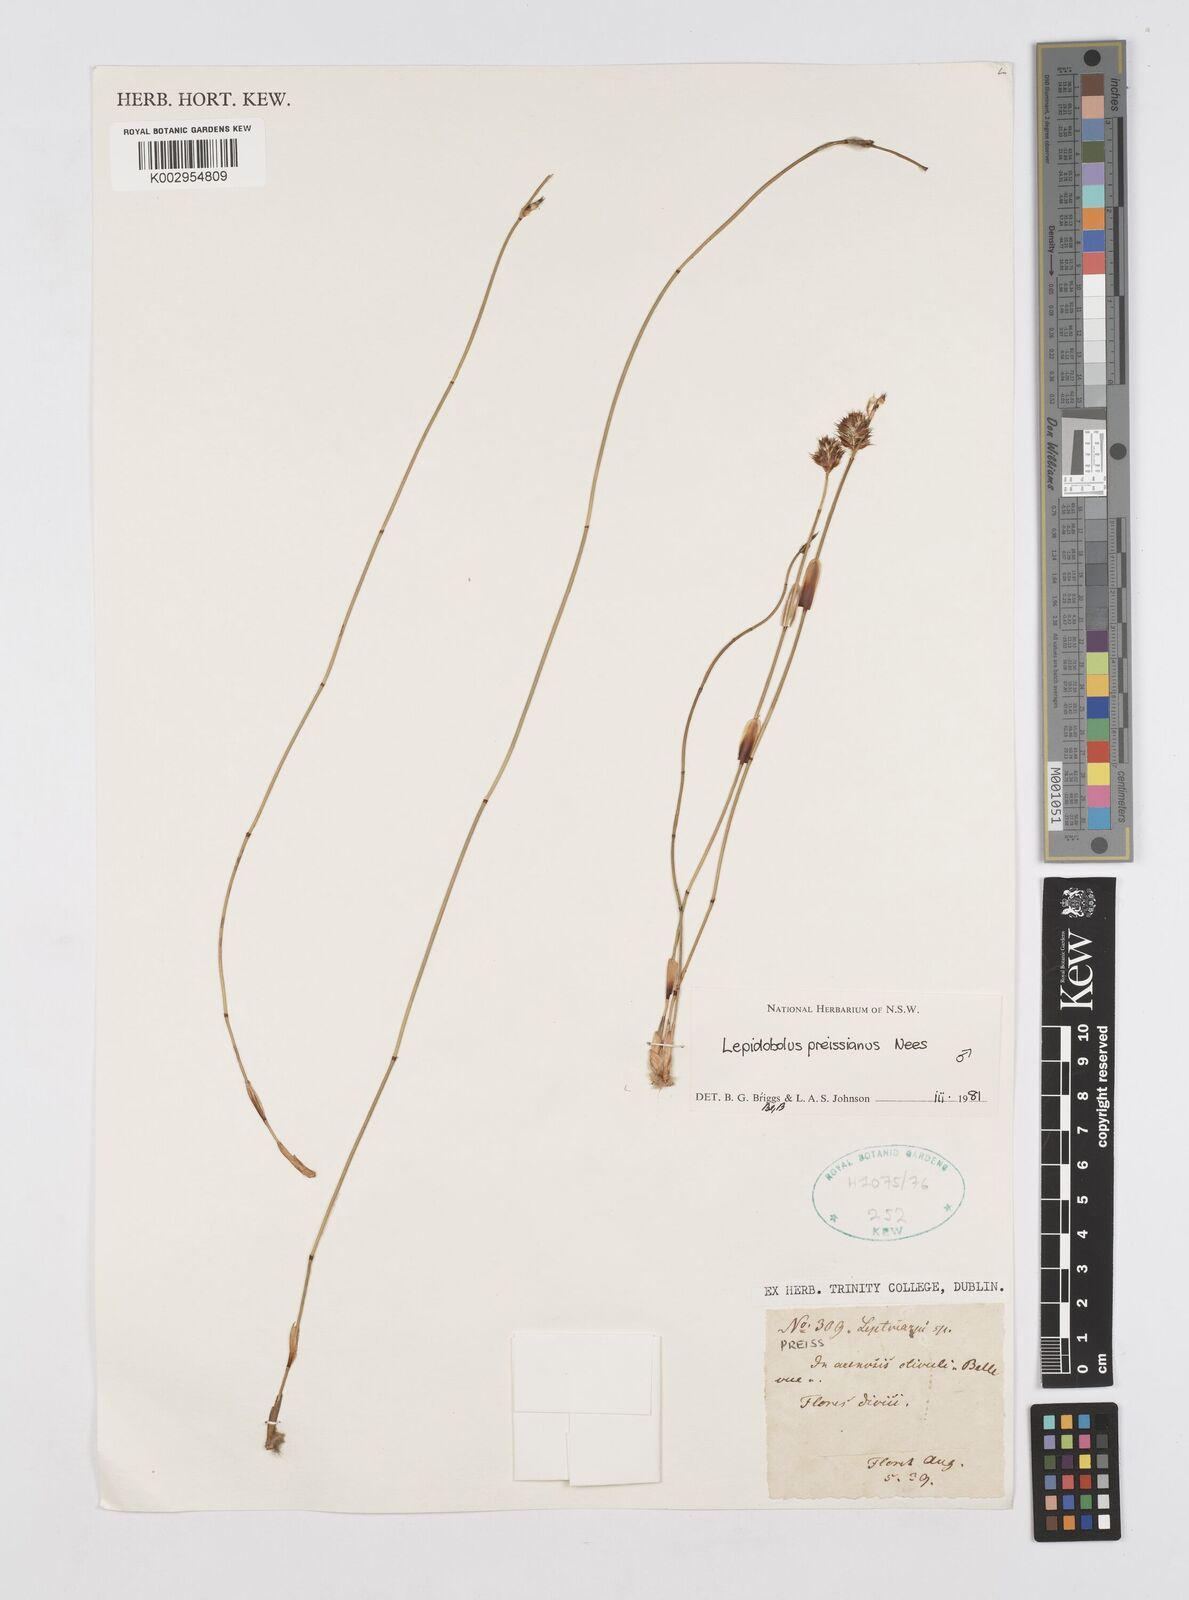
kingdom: Plantae
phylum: Tracheophyta
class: Liliopsida
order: Poales
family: Restionaceae
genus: Lepidobolus
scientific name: Lepidobolus preissianus
